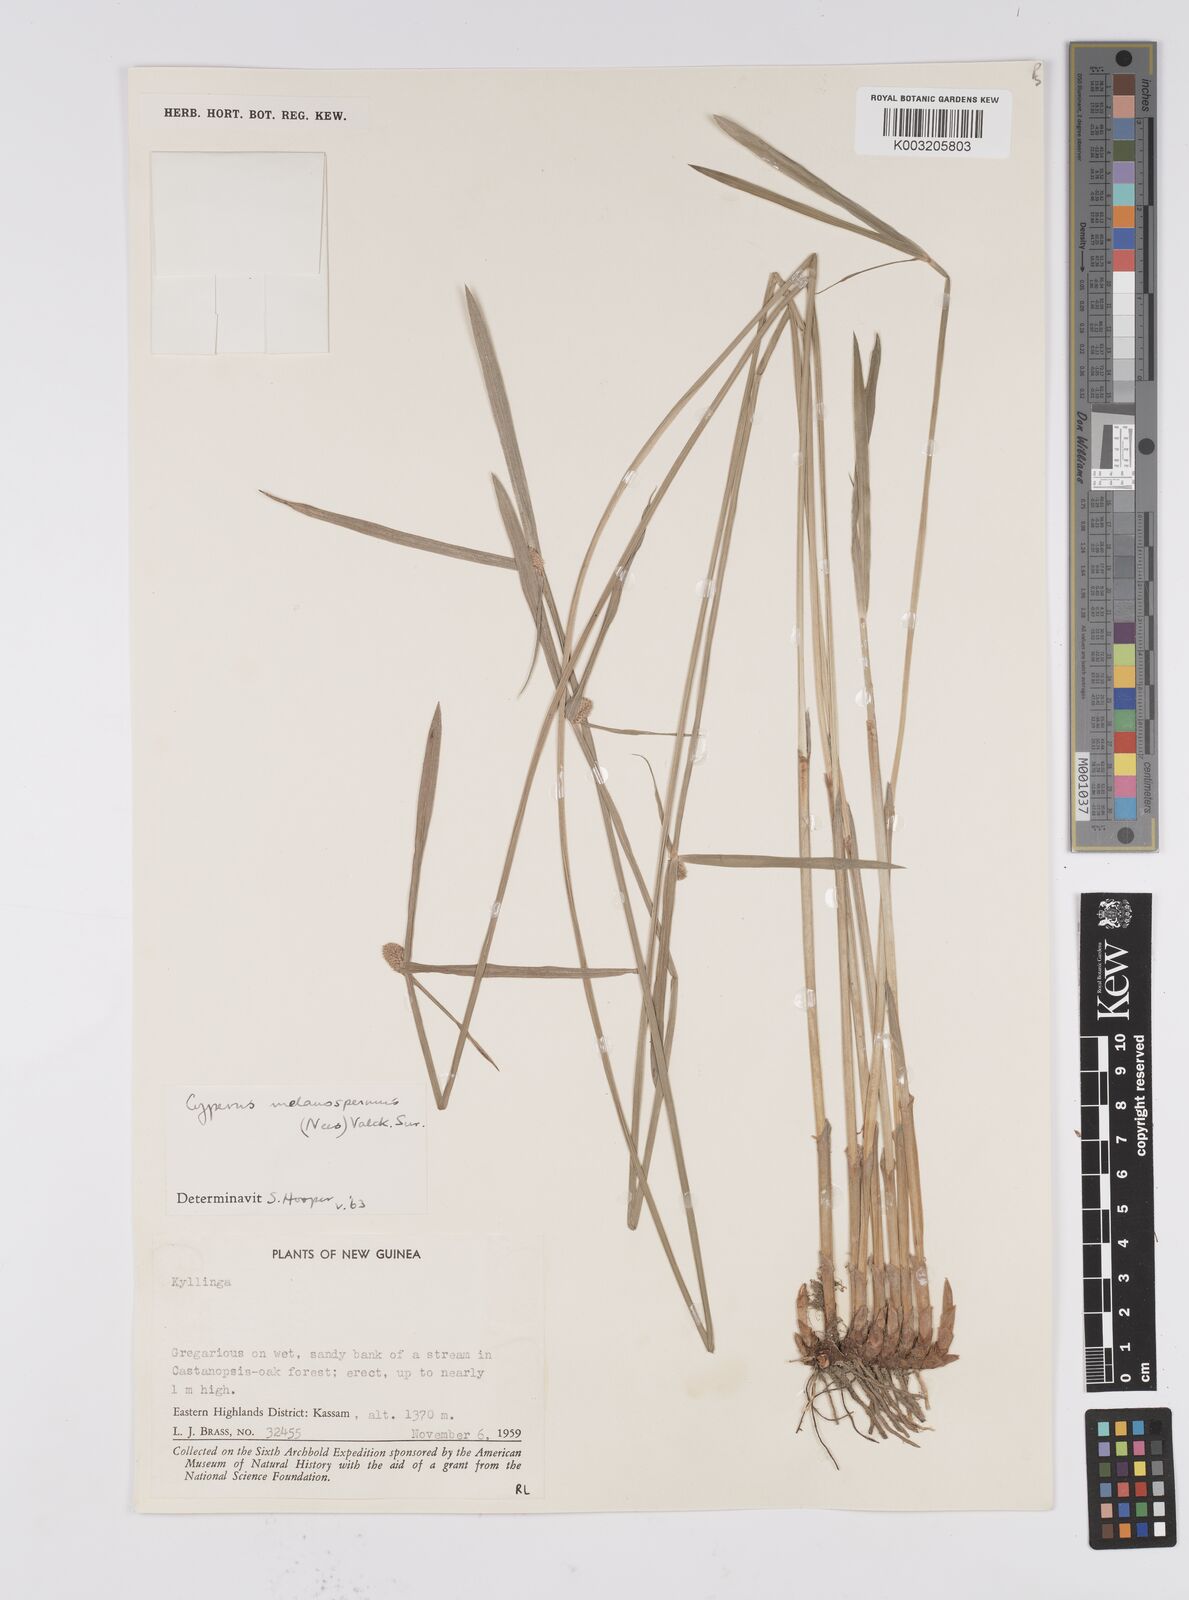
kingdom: Plantae
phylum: Tracheophyta
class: Liliopsida
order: Poales
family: Cyperaceae
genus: Cyperus
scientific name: Cyperus melanospermus
